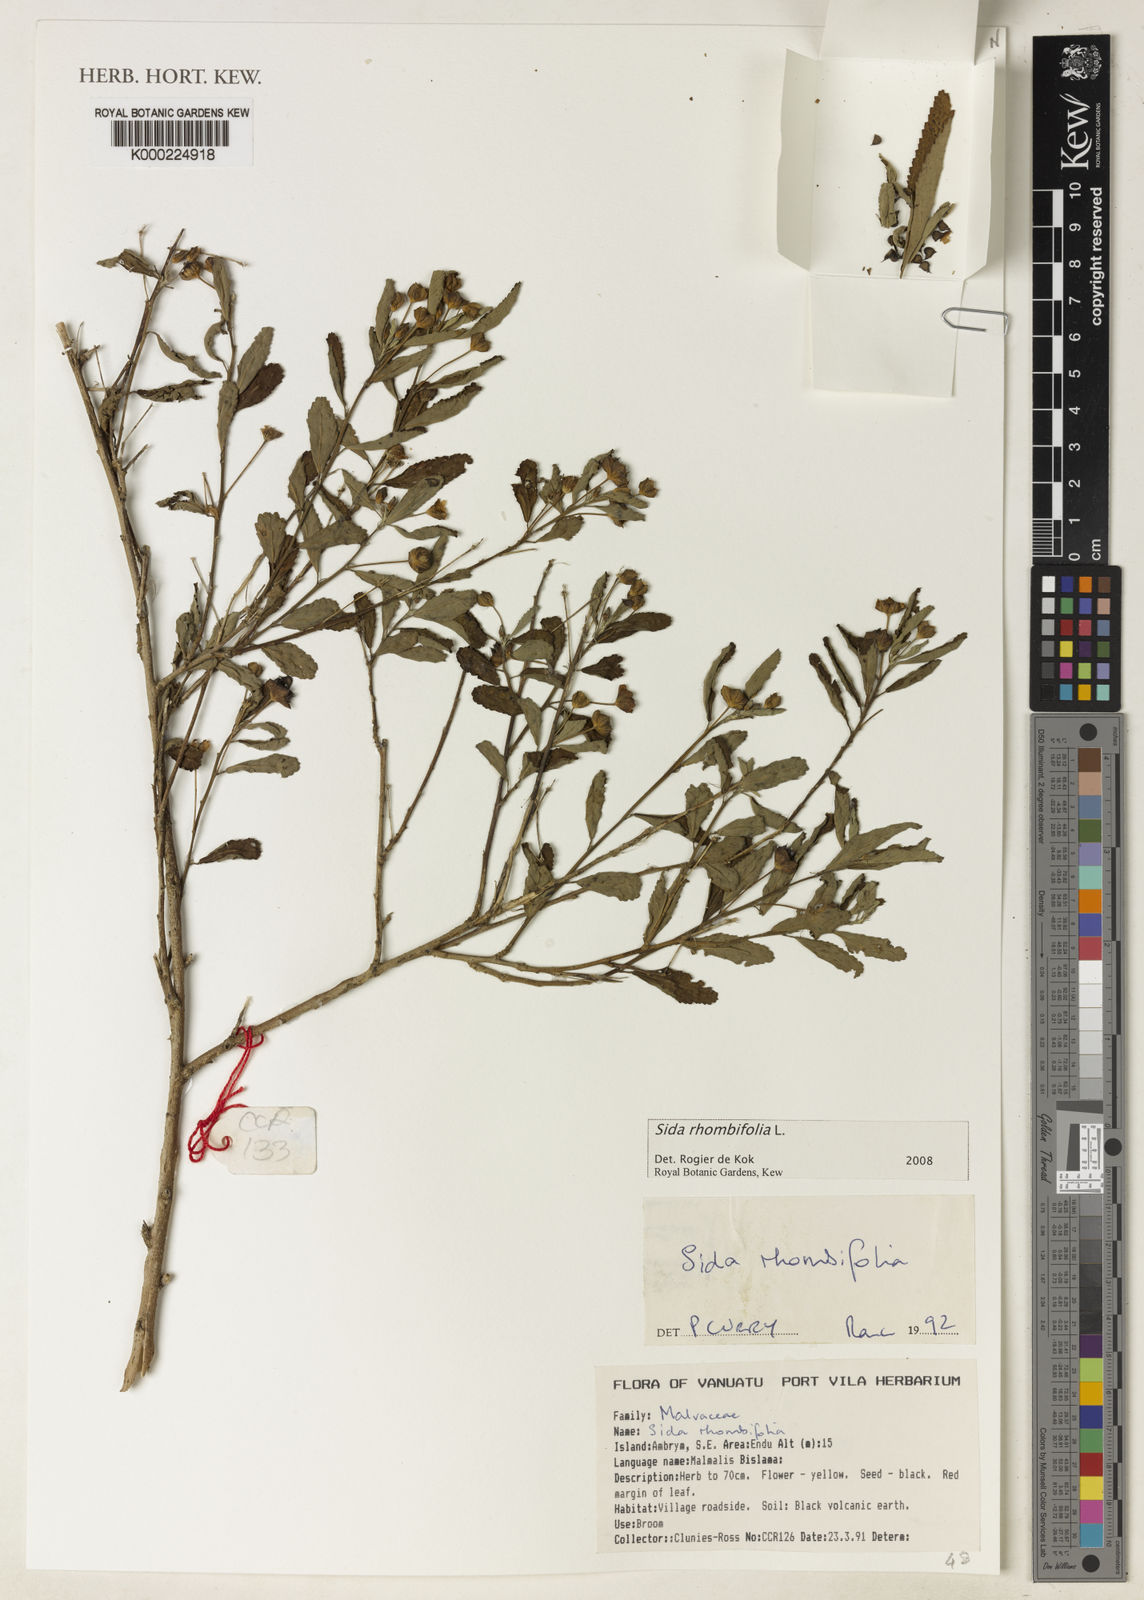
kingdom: Plantae
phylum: Tracheophyta
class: Magnoliopsida
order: Malvales
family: Malvaceae
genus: Sida
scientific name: Sida rhombifolia
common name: Queensland-hemp
